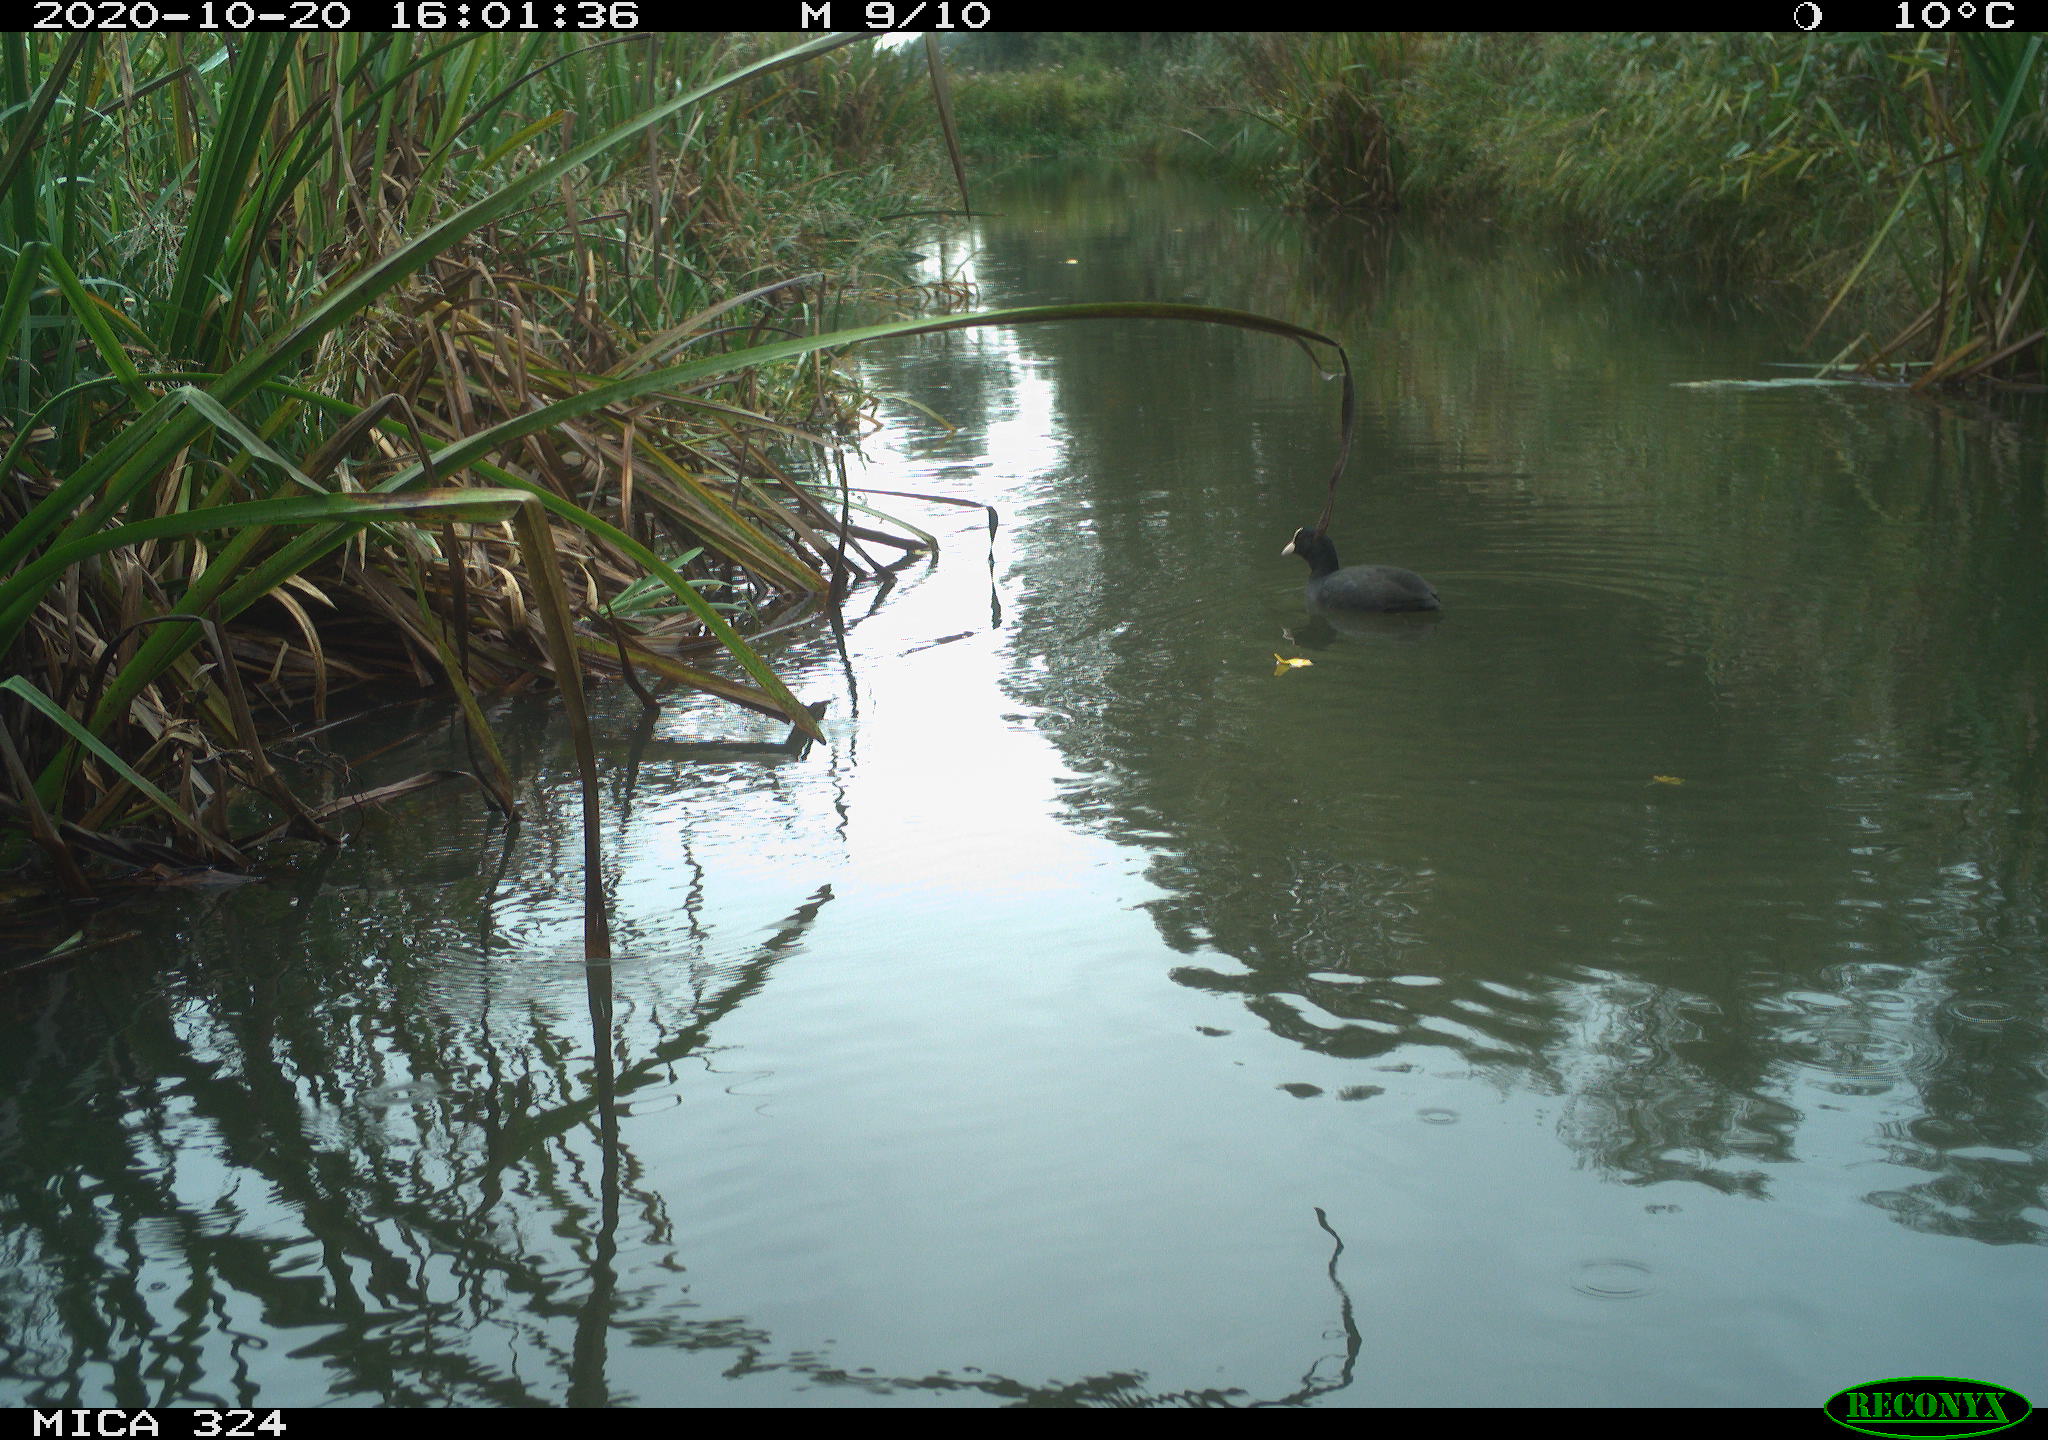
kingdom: Animalia
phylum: Chordata
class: Aves
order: Gruiformes
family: Rallidae
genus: Fulica
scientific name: Fulica atra
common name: Eurasian coot
